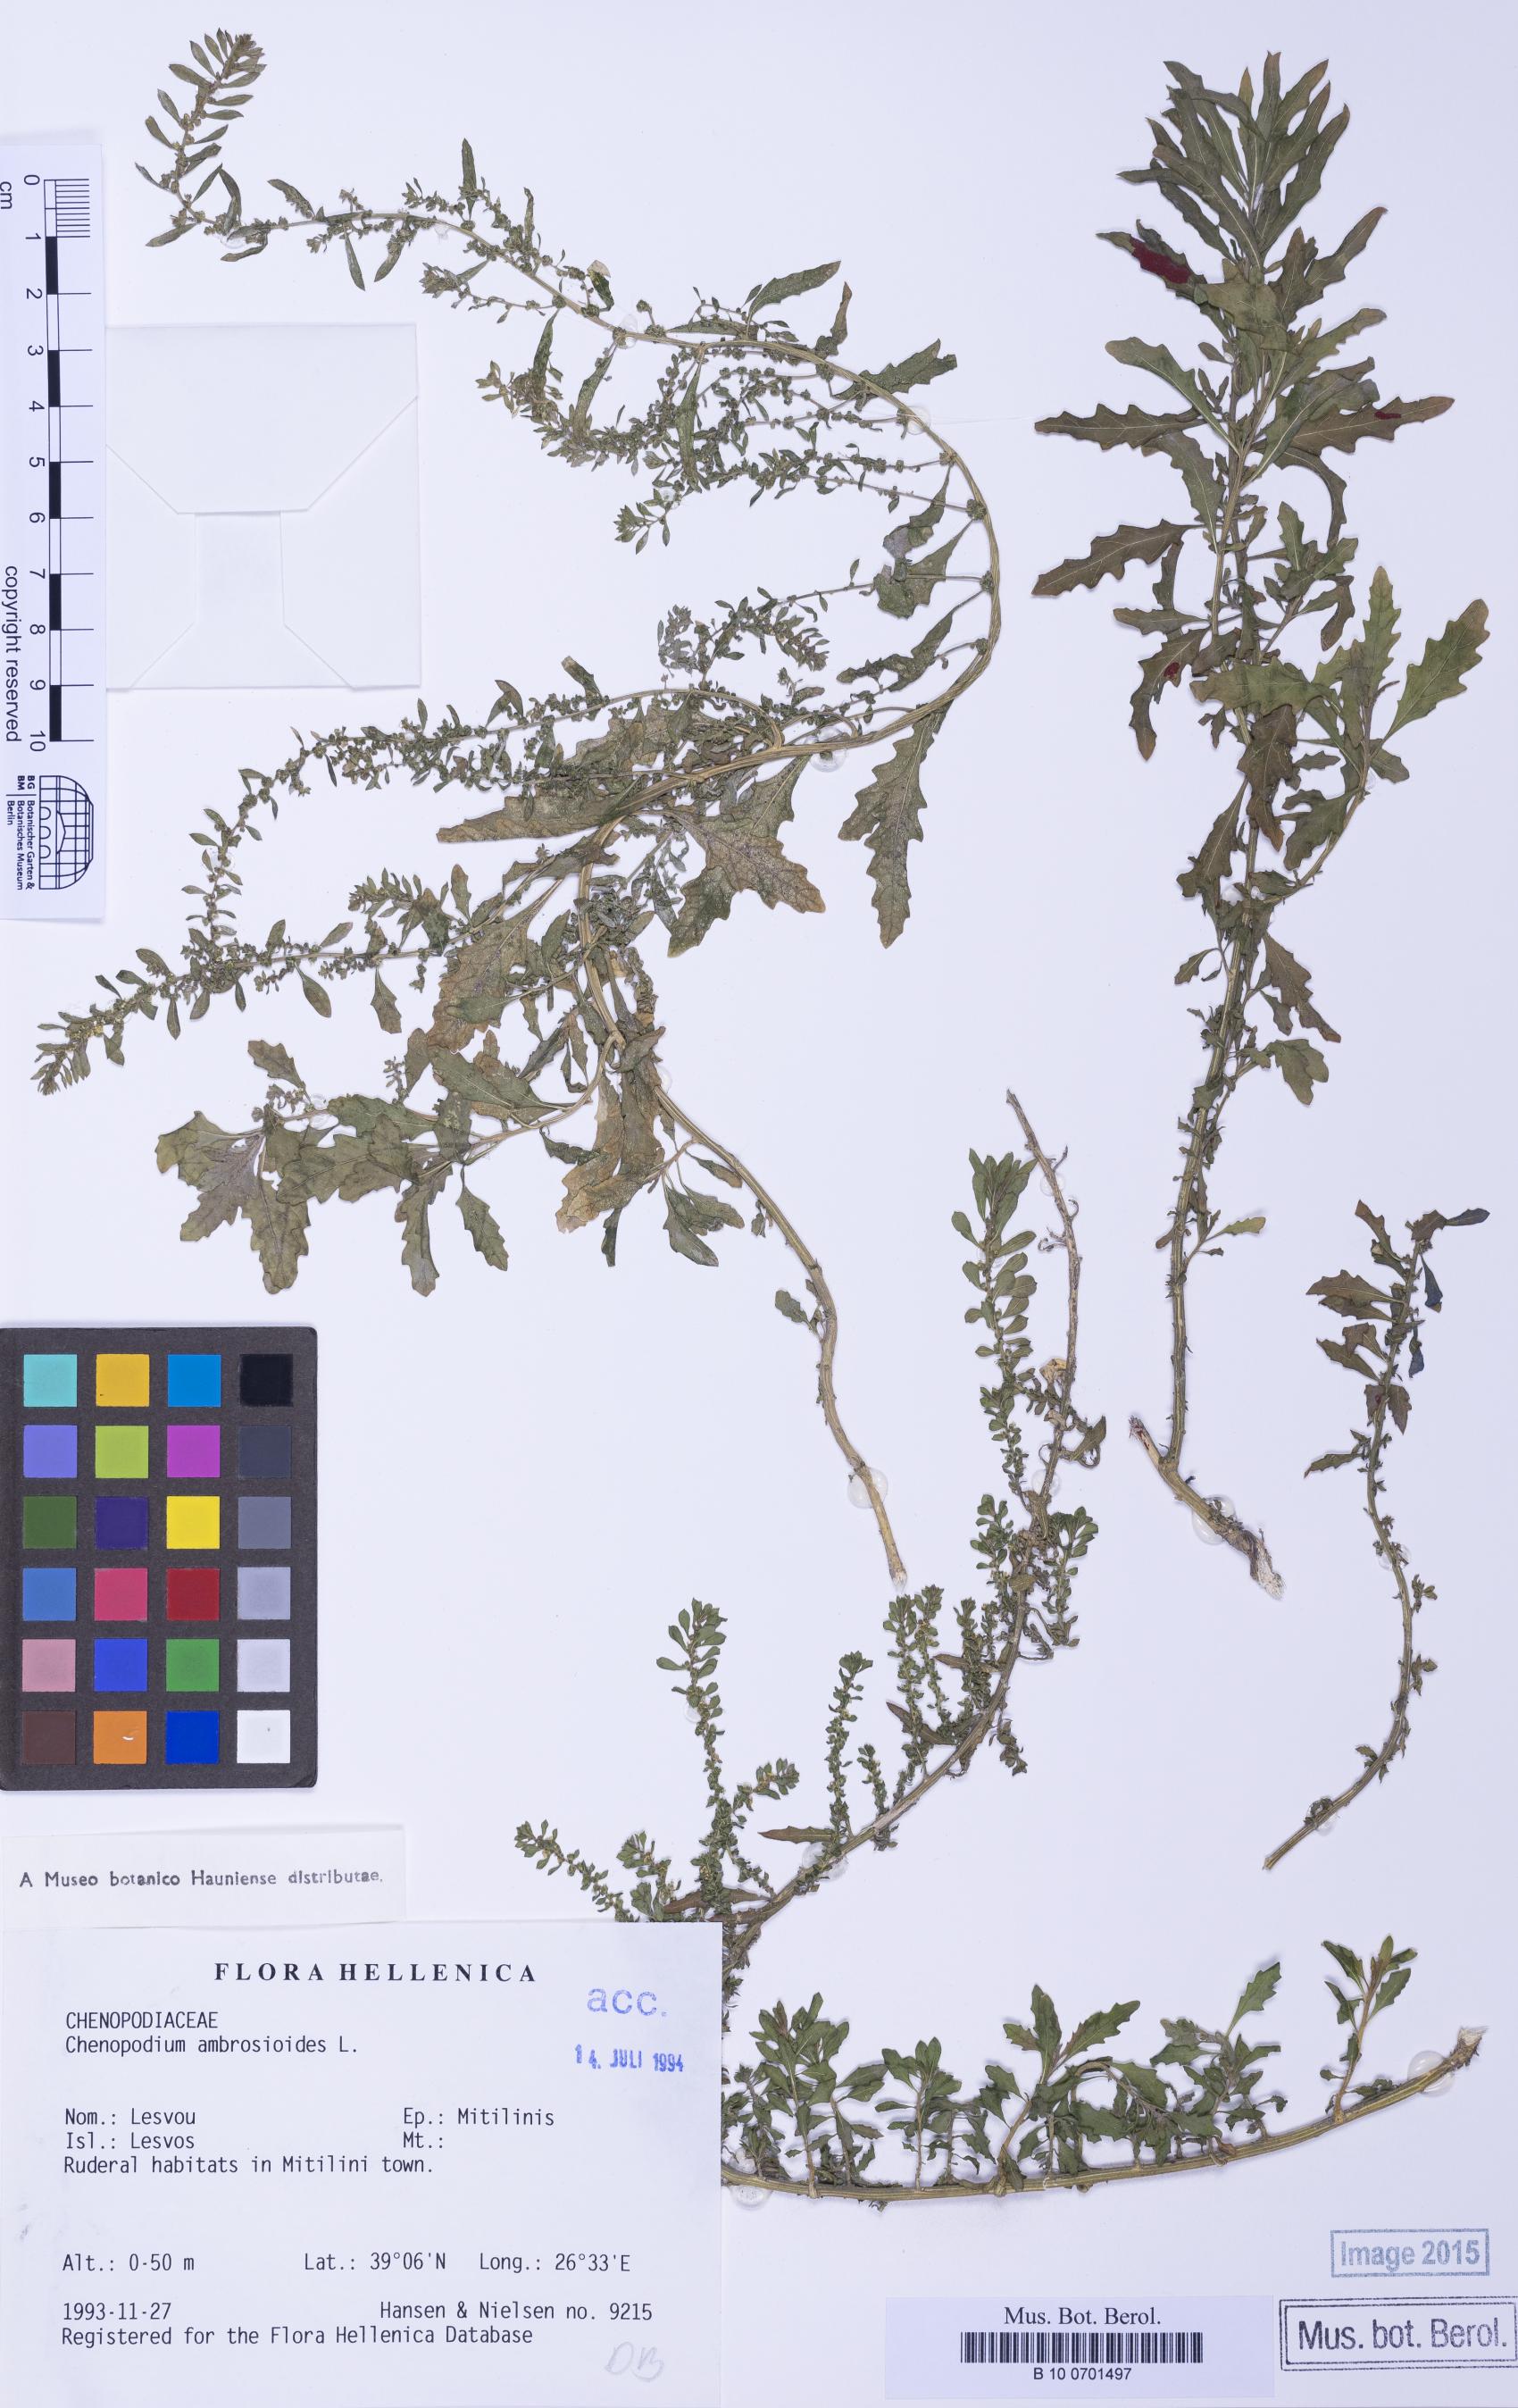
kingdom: Plantae
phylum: Tracheophyta
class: Magnoliopsida
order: Caryophyllales
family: Amaranthaceae
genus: Dysphania
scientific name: Dysphania ambrosioides
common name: Wormseed
